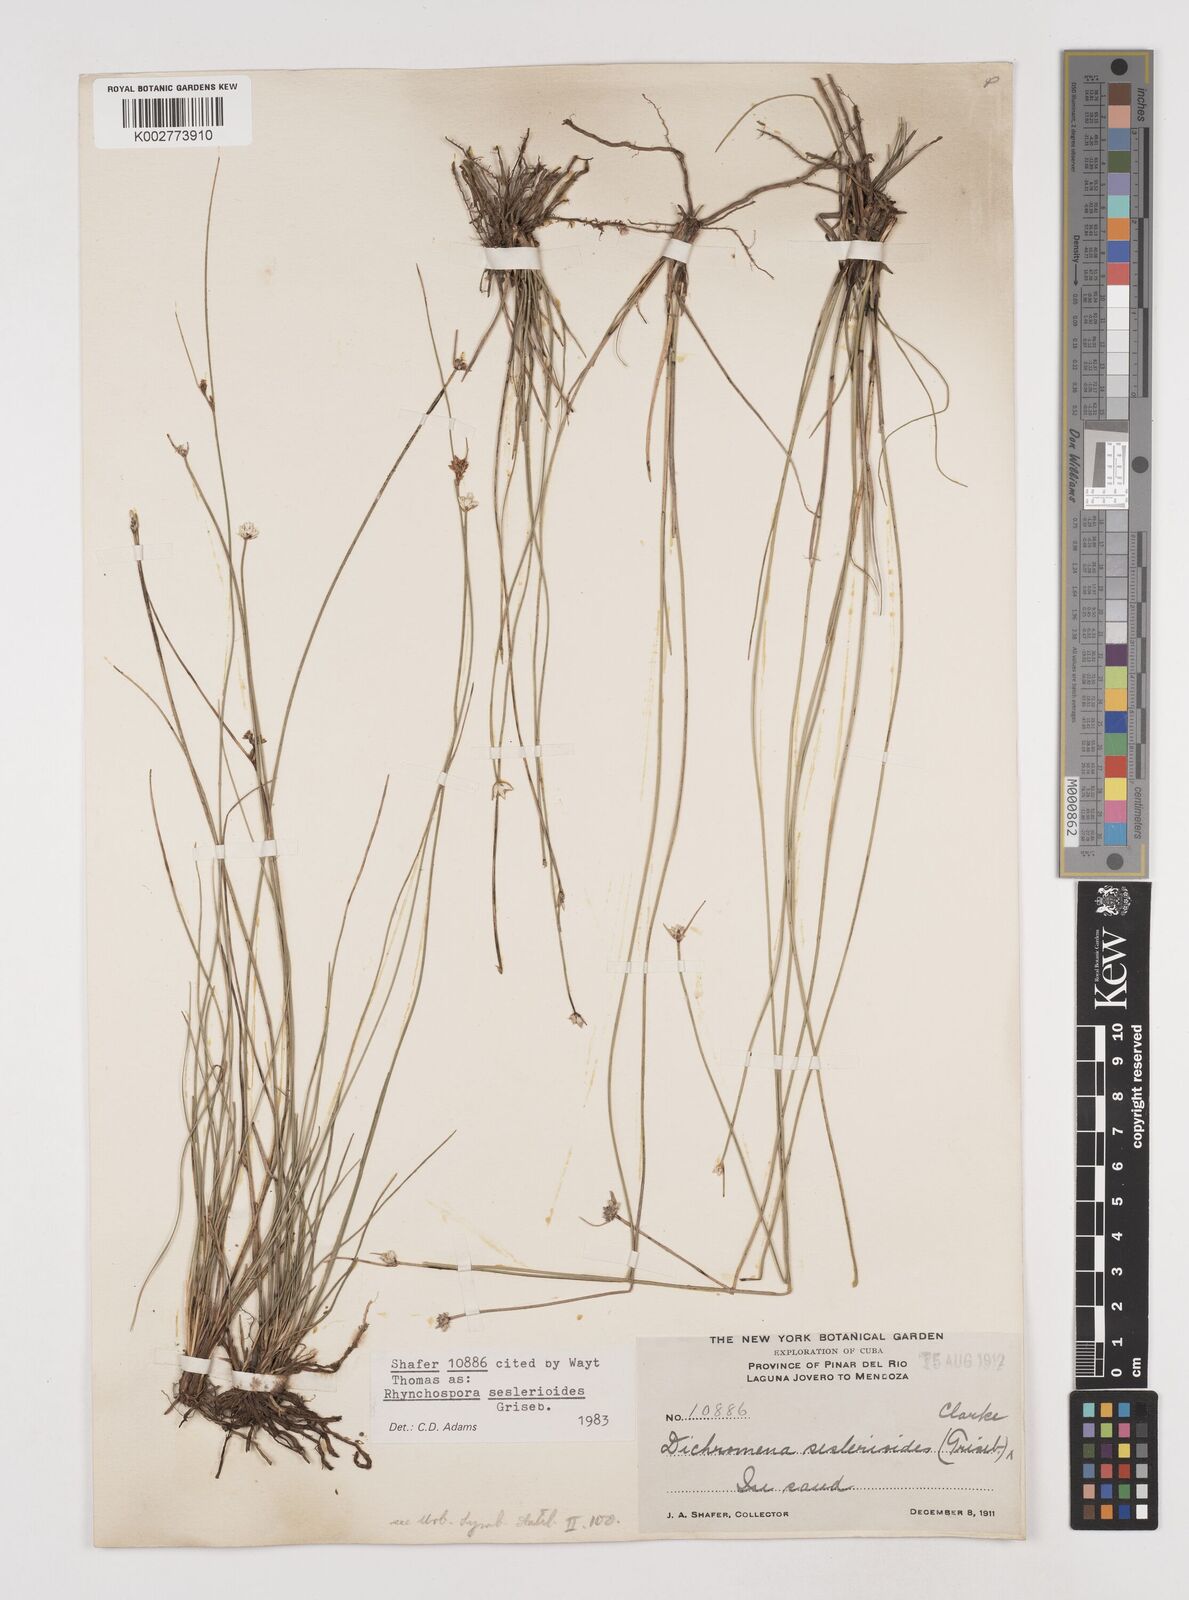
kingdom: Plantae
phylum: Tracheophyta
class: Liliopsida
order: Poales
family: Cyperaceae
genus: Rhynchospora
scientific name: Rhynchospora seslerioides
